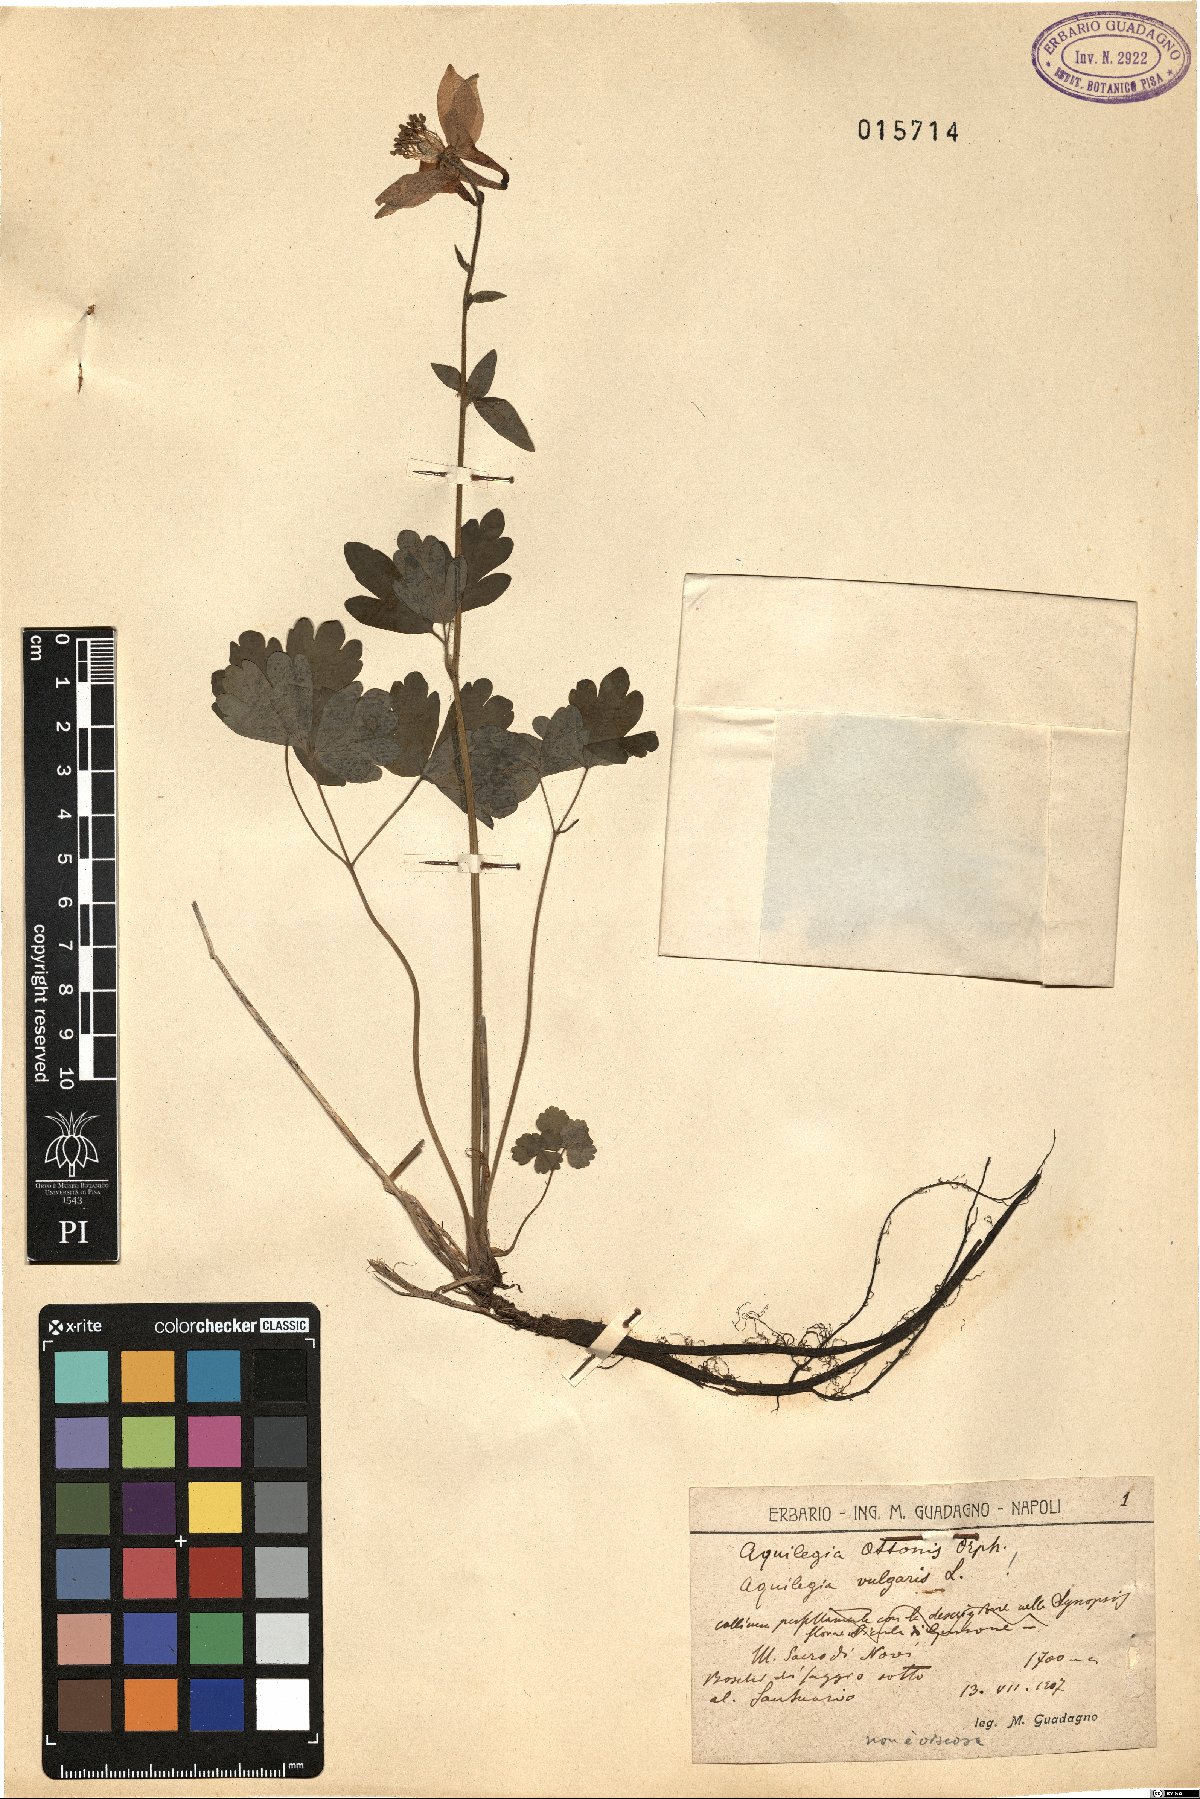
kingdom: Plantae
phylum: Tracheophyta
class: Magnoliopsida
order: Ranunculales
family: Ranunculaceae
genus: Aquilegia
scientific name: Aquilegia ottonis
